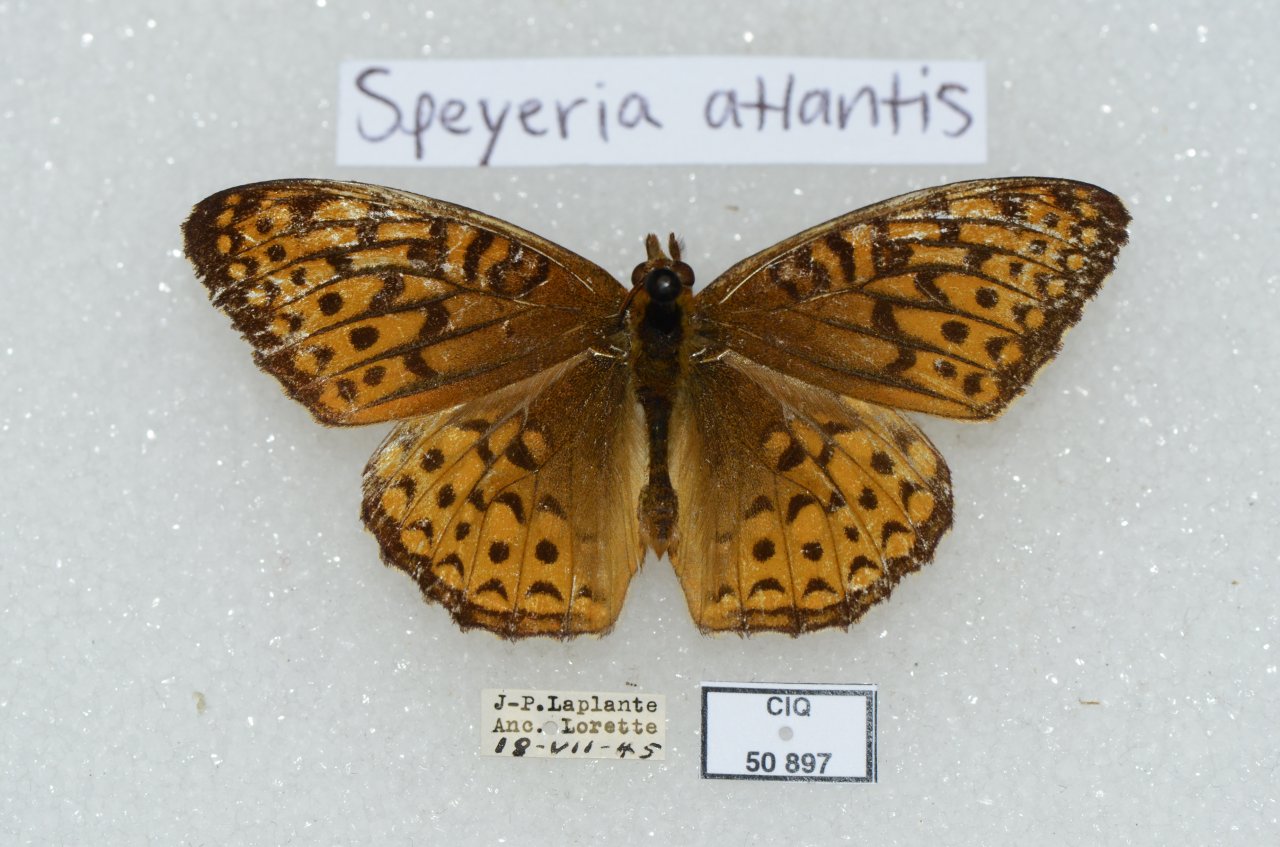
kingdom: Animalia
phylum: Arthropoda
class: Insecta
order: Lepidoptera
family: Nymphalidae
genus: Speyeria
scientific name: Speyeria atlantis
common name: Atlantis Fritillary
